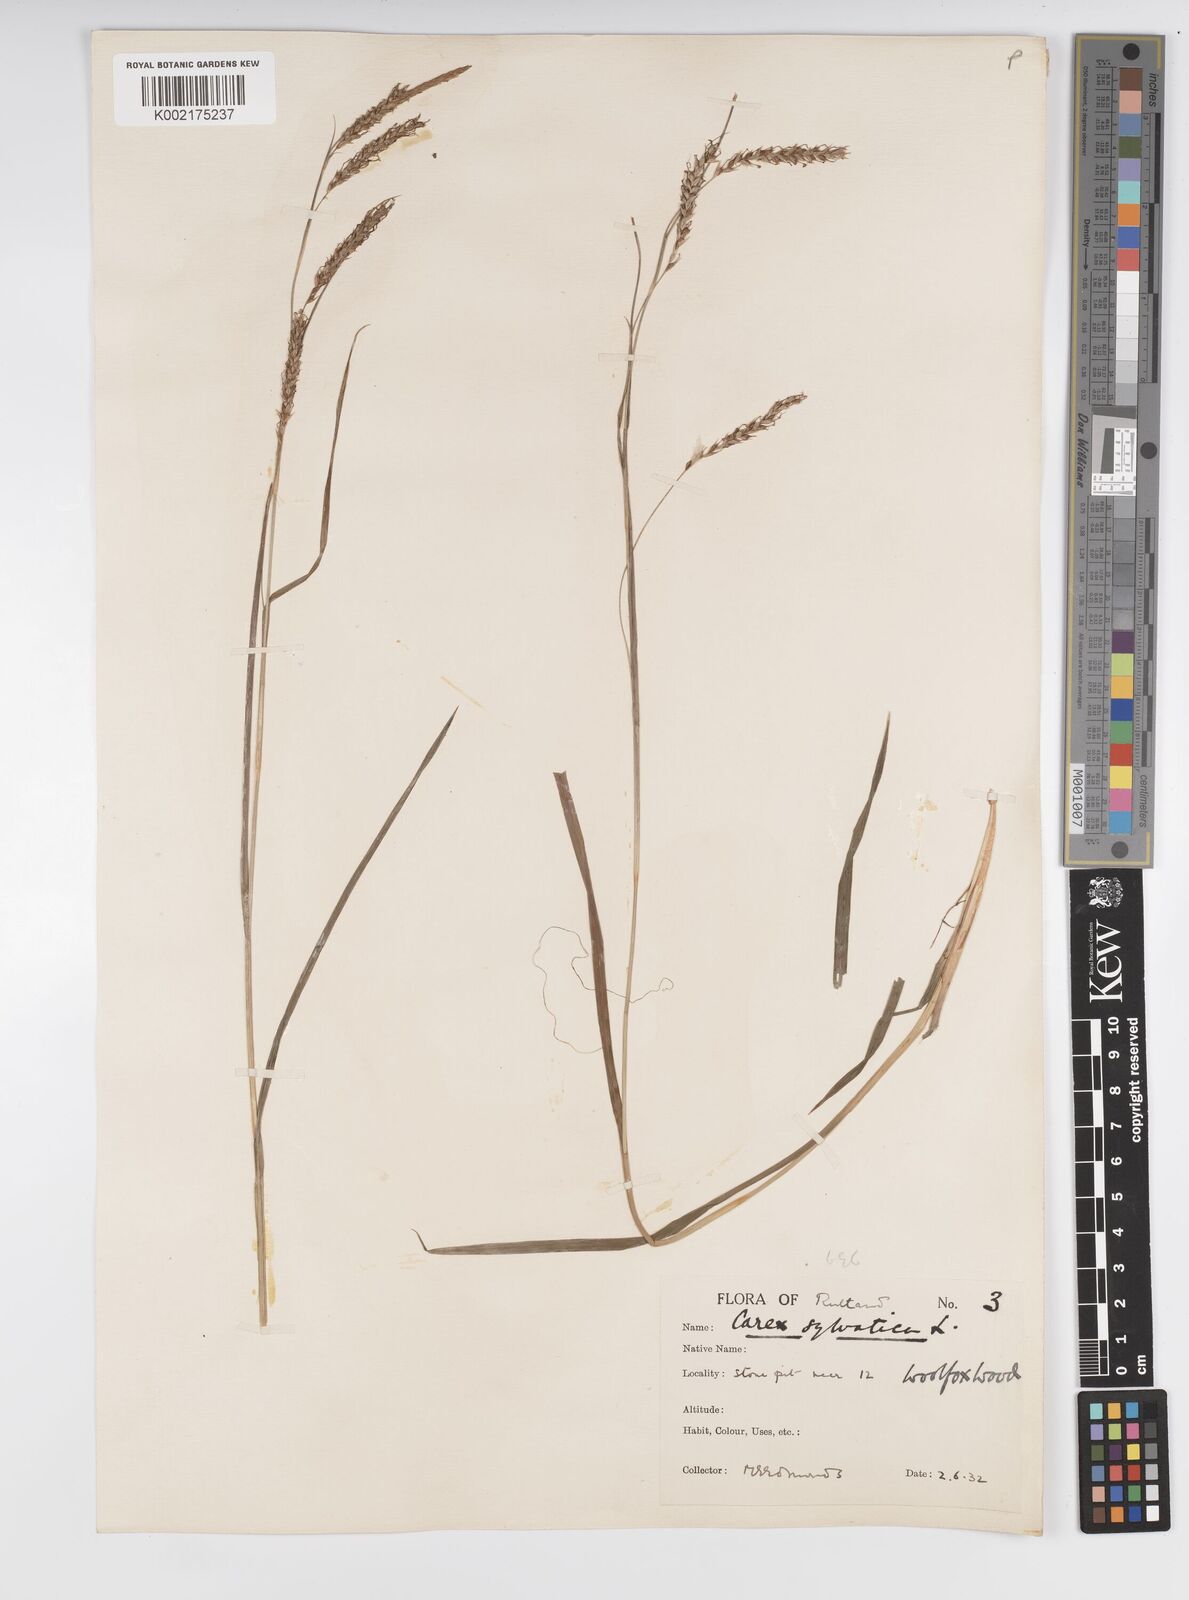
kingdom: Plantae
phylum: Tracheophyta
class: Liliopsida
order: Poales
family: Cyperaceae
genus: Carex
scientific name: Carex sylvatica
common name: Wood-sedge
